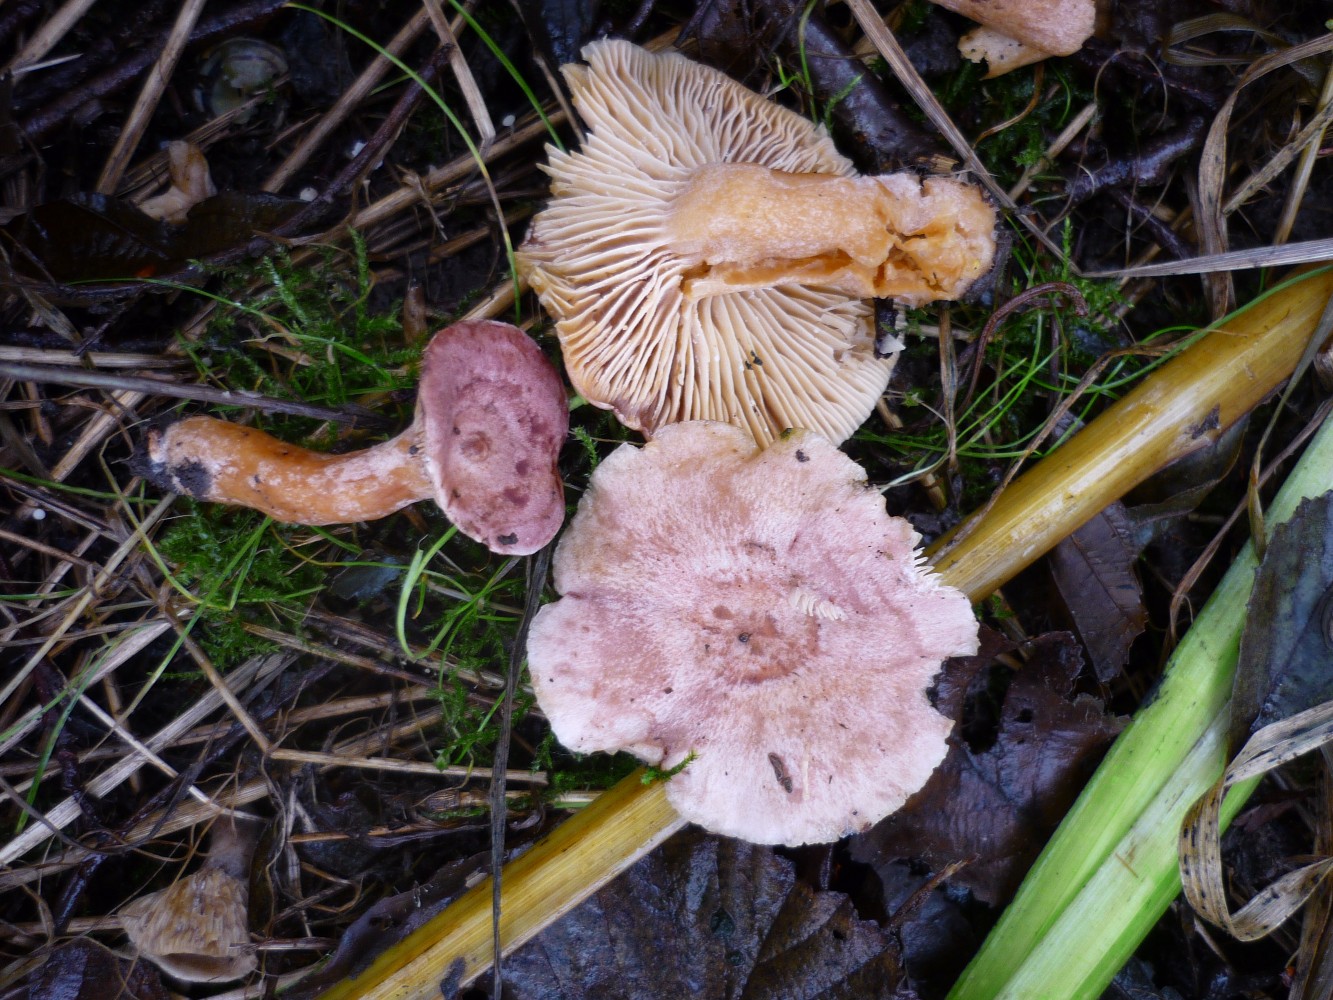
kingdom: Fungi
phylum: Basidiomycota
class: Agaricomycetes
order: Russulales
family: Russulaceae
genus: Lactarius
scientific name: Lactarius lilacinus
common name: lilla mælkehat
